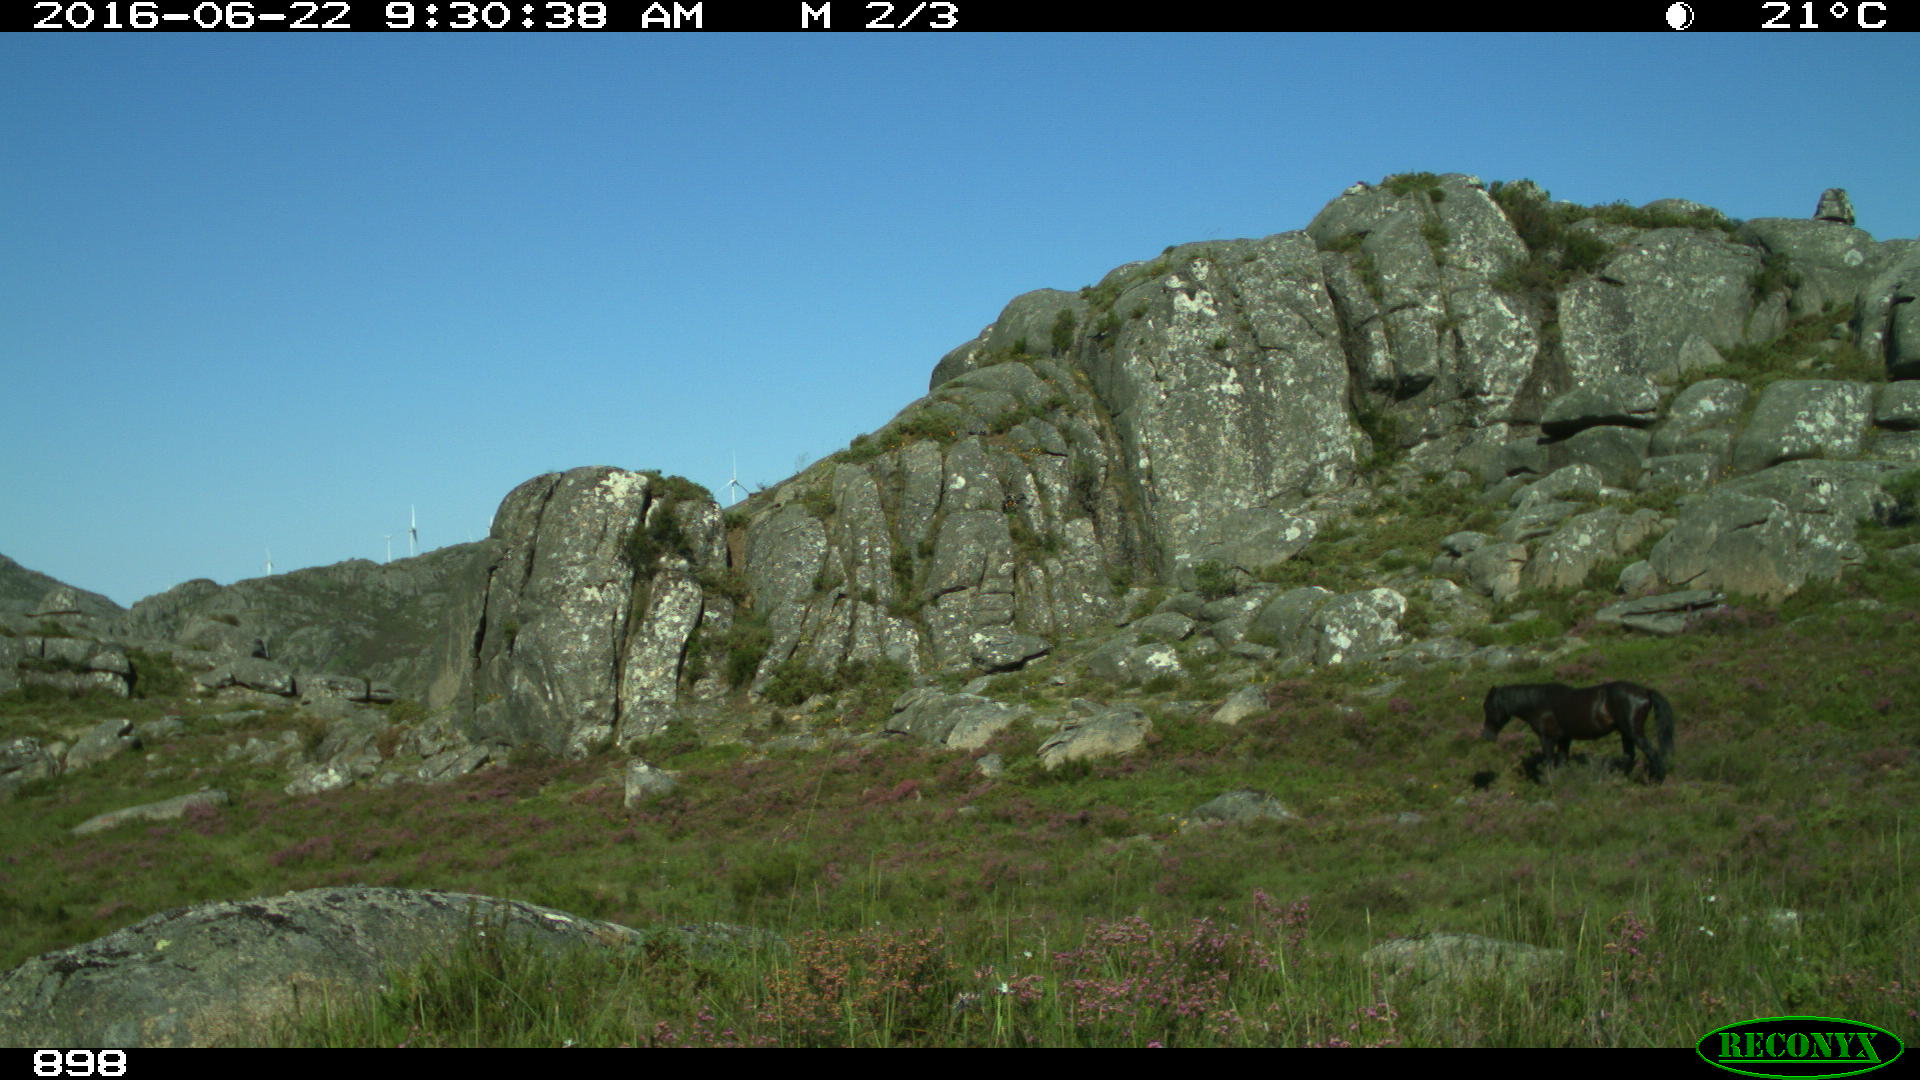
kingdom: Animalia
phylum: Chordata
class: Mammalia
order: Perissodactyla
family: Equidae
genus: Equus
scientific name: Equus caballus
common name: Horse
